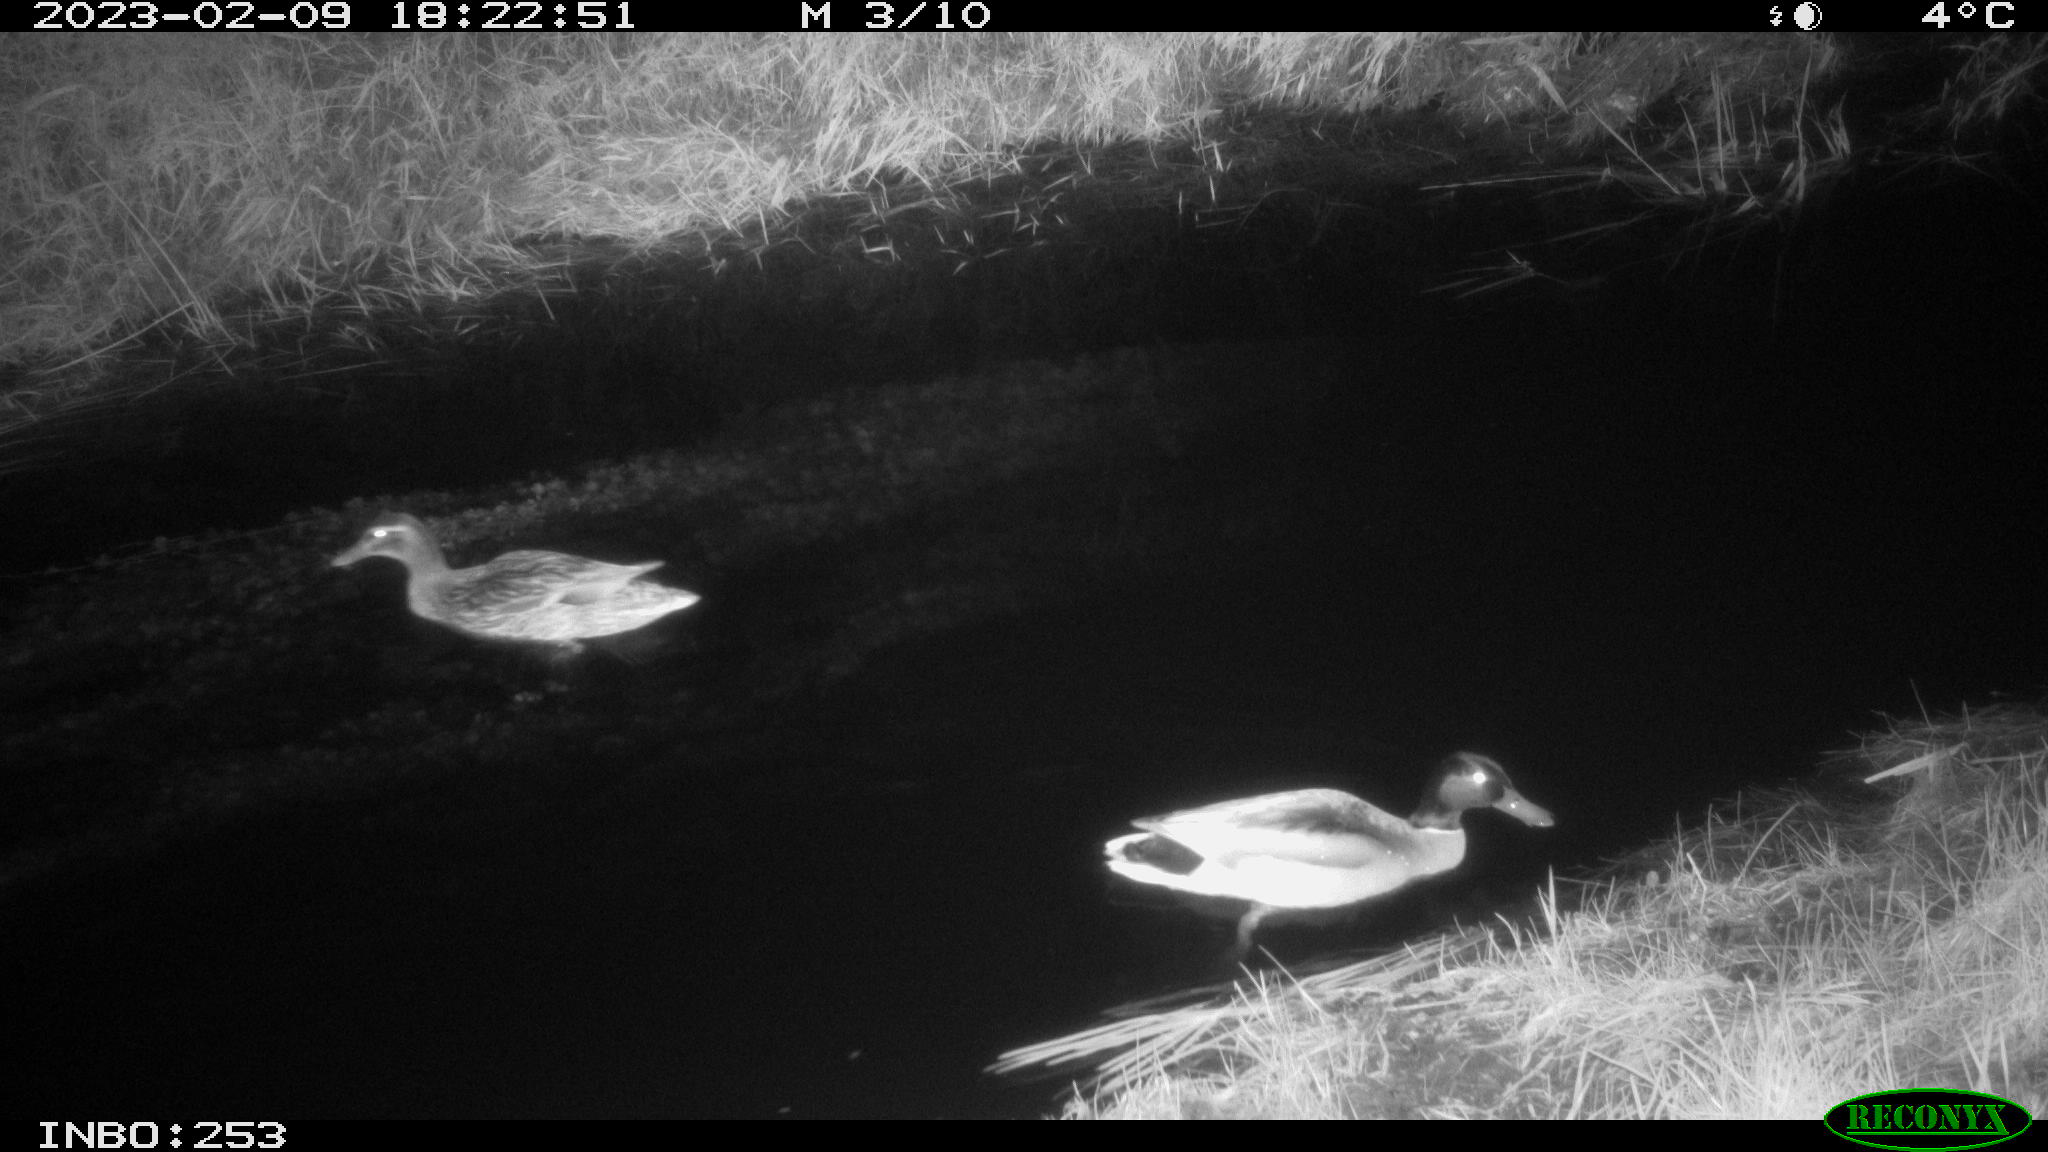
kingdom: Animalia
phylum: Chordata
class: Aves
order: Anseriformes
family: Anatidae
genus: Anas
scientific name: Anas
